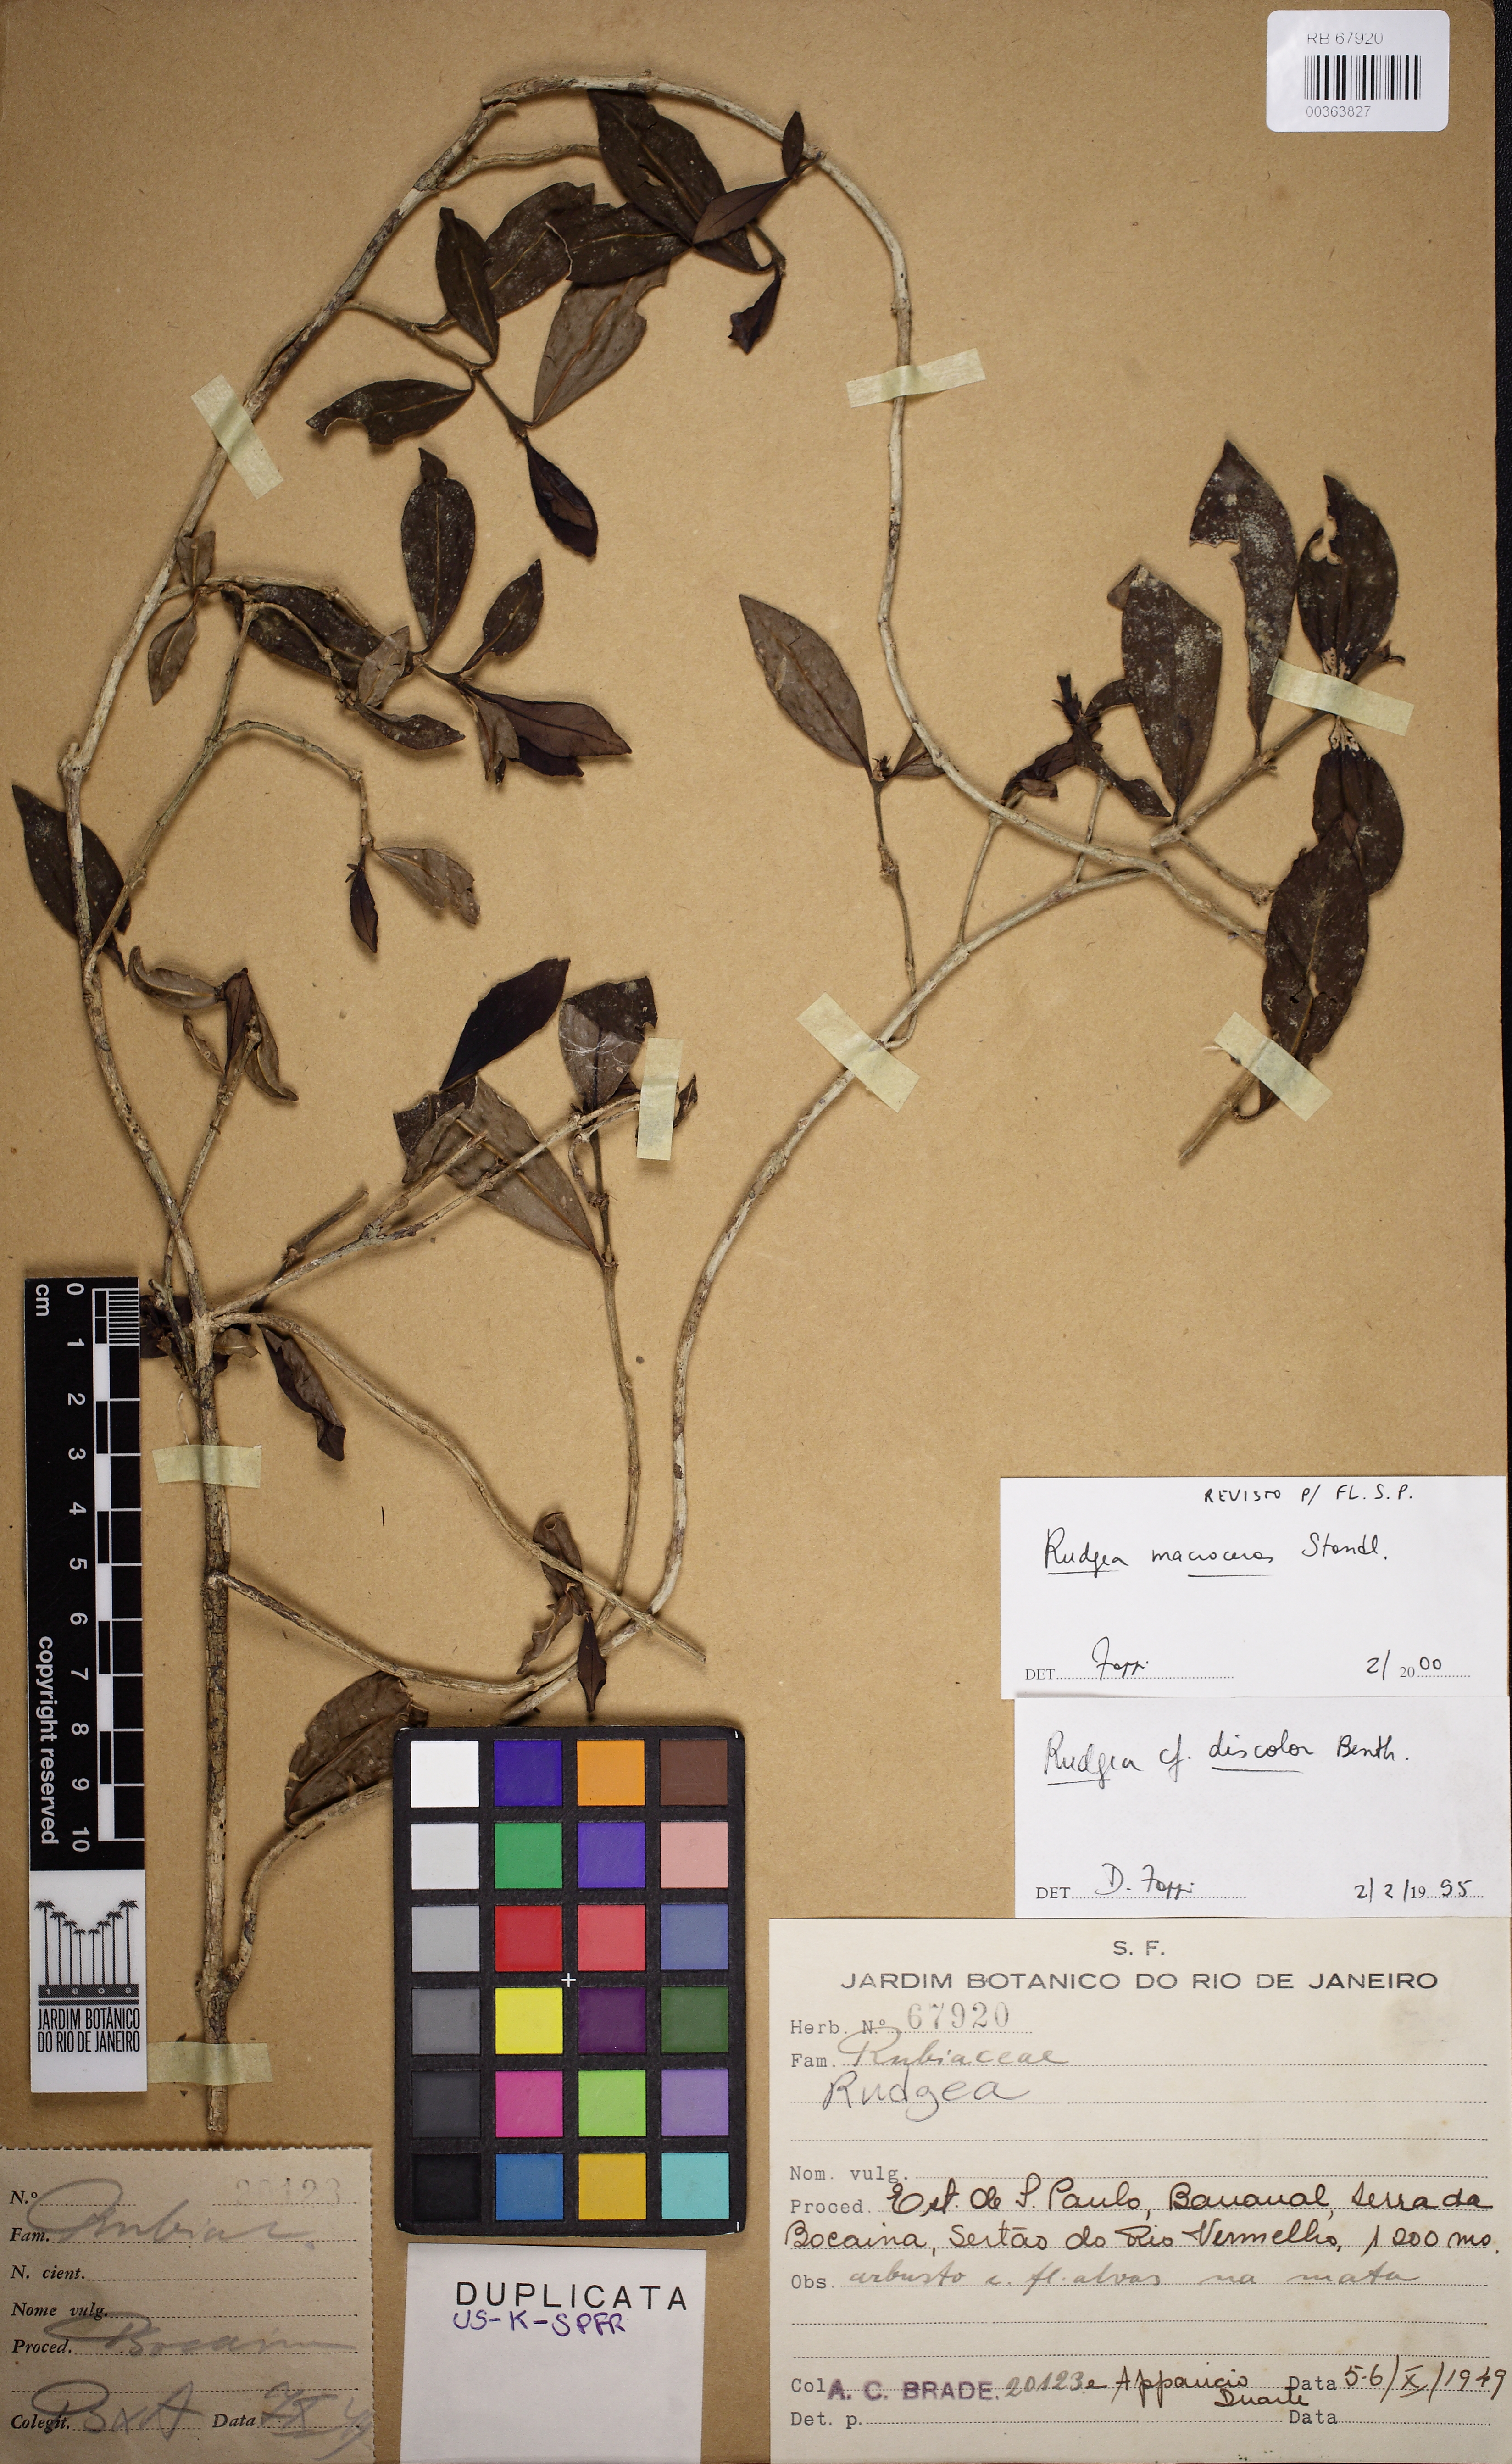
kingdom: Plantae
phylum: Tracheophyta
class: Magnoliopsida
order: Gentianales
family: Rubiaceae
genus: Rudgea
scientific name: Rudgea macroceras
